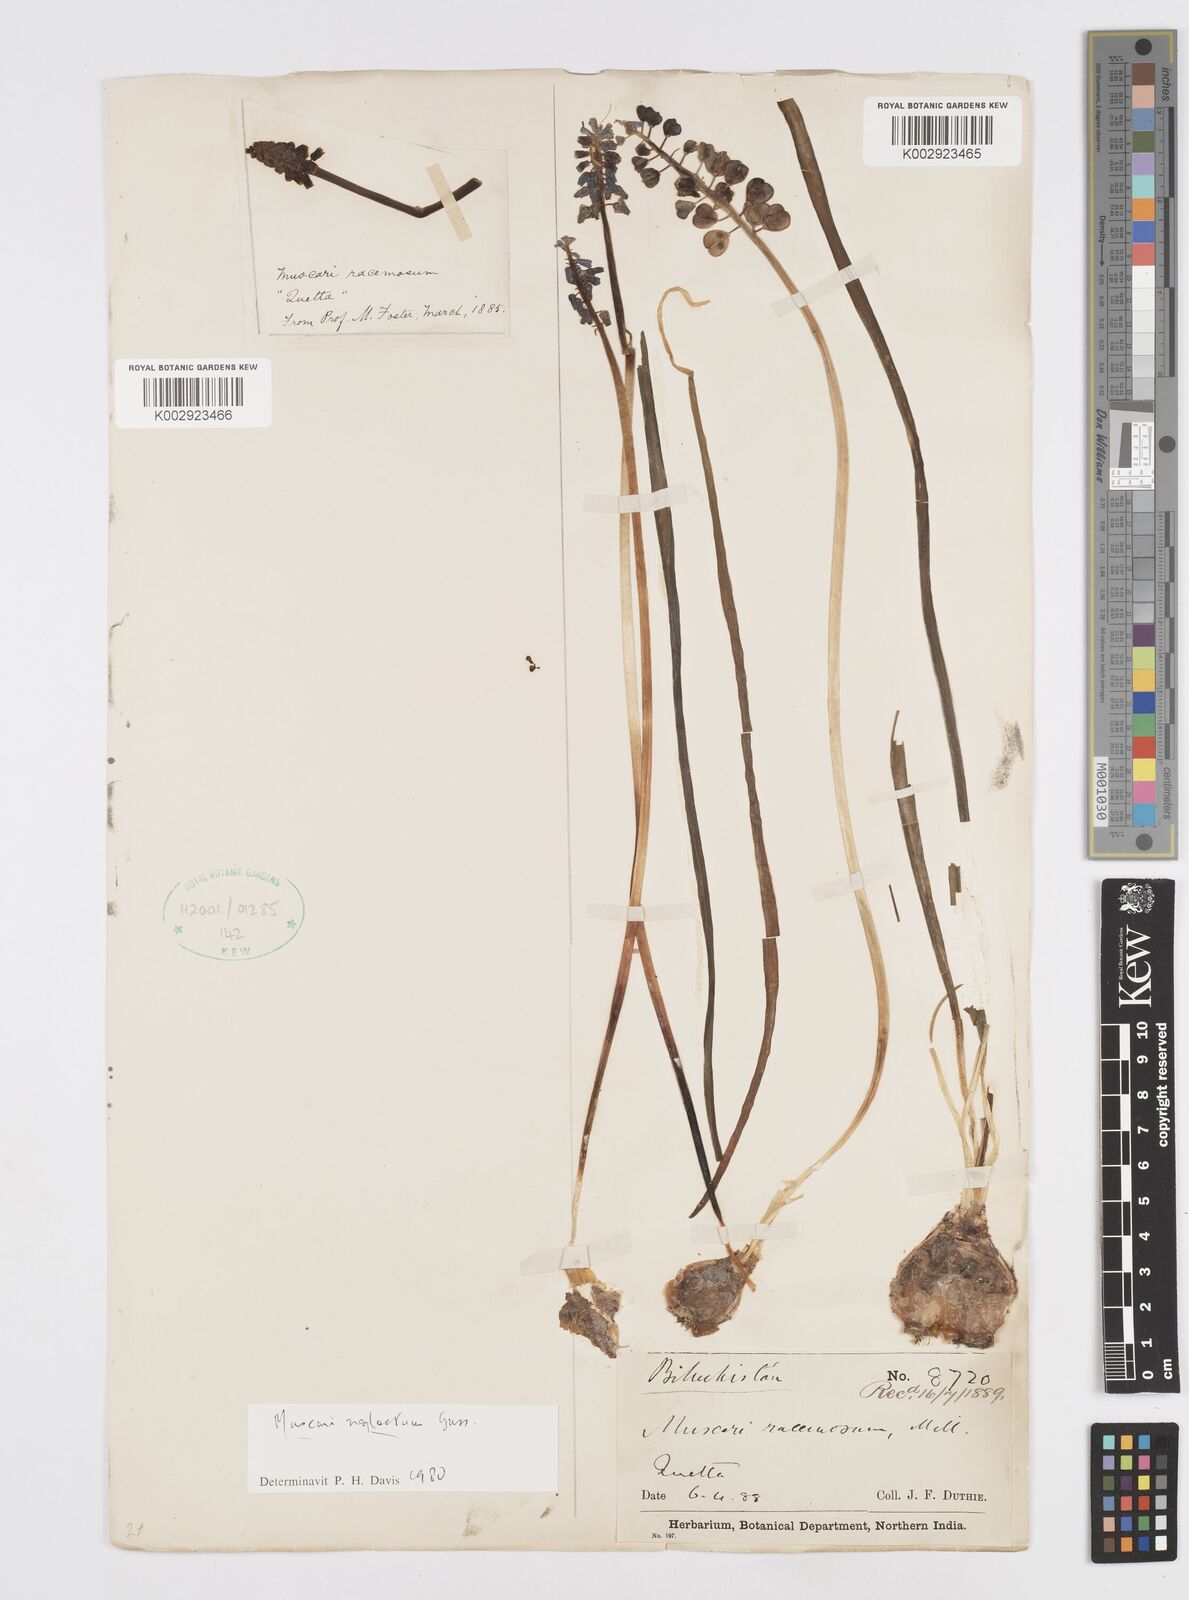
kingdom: Plantae
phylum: Tracheophyta
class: Liliopsida
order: Asparagales
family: Asparagaceae
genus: Muscari
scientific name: Muscari neglectum
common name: Grape-hyacinth
